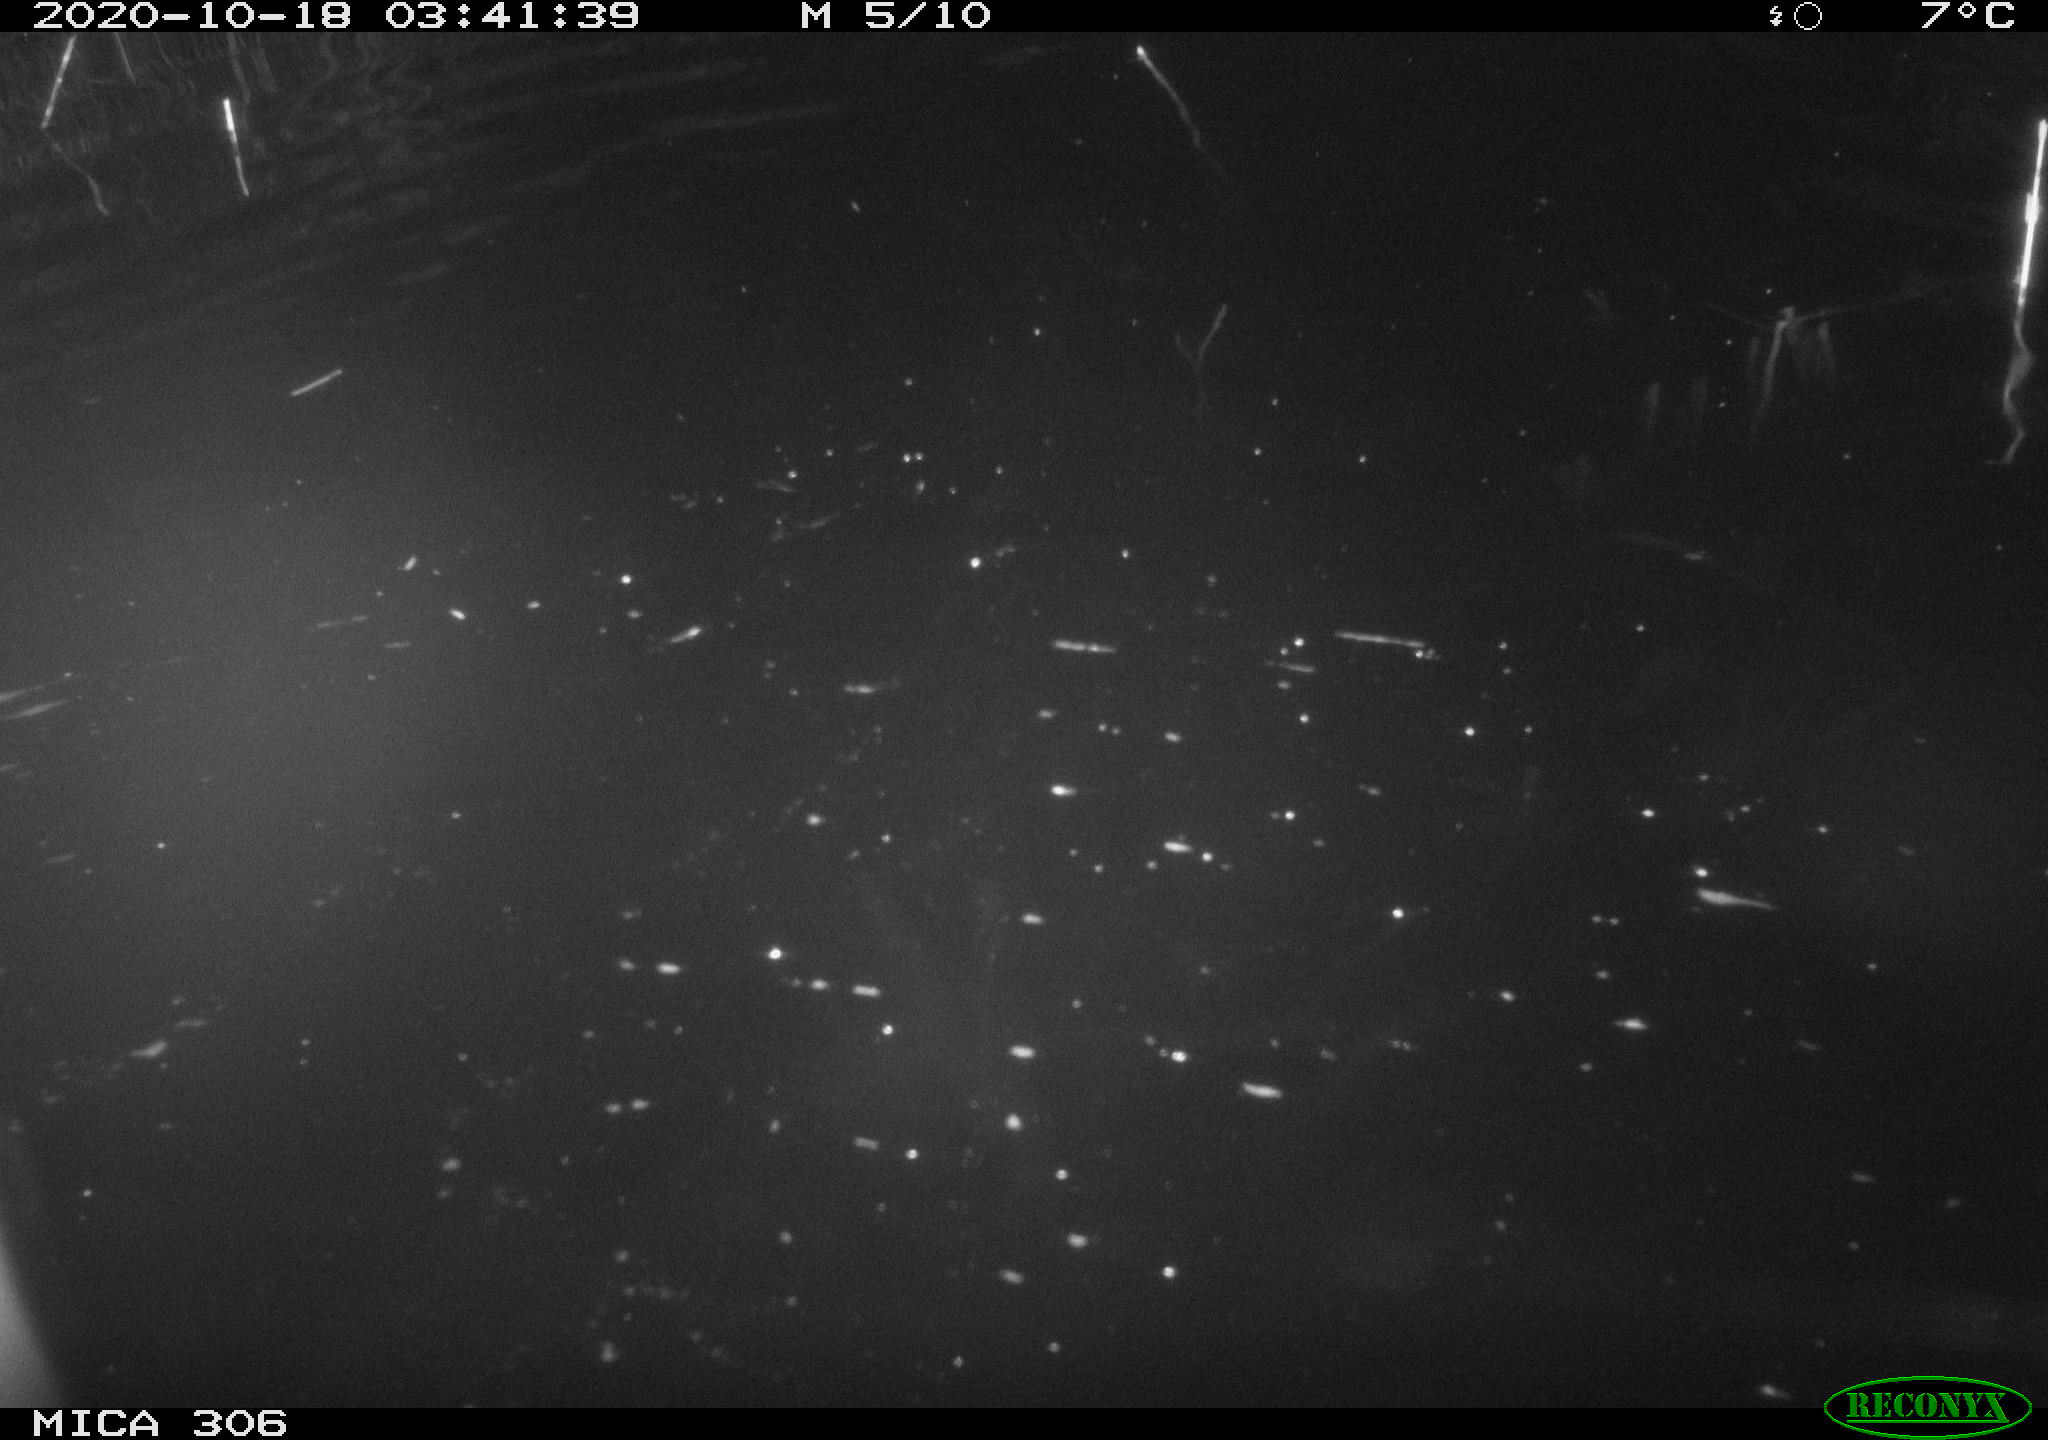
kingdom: Animalia
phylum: Chordata
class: Mammalia
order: Rodentia
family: Cricetidae
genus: Ondatra
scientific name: Ondatra zibethicus
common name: Muskrat
